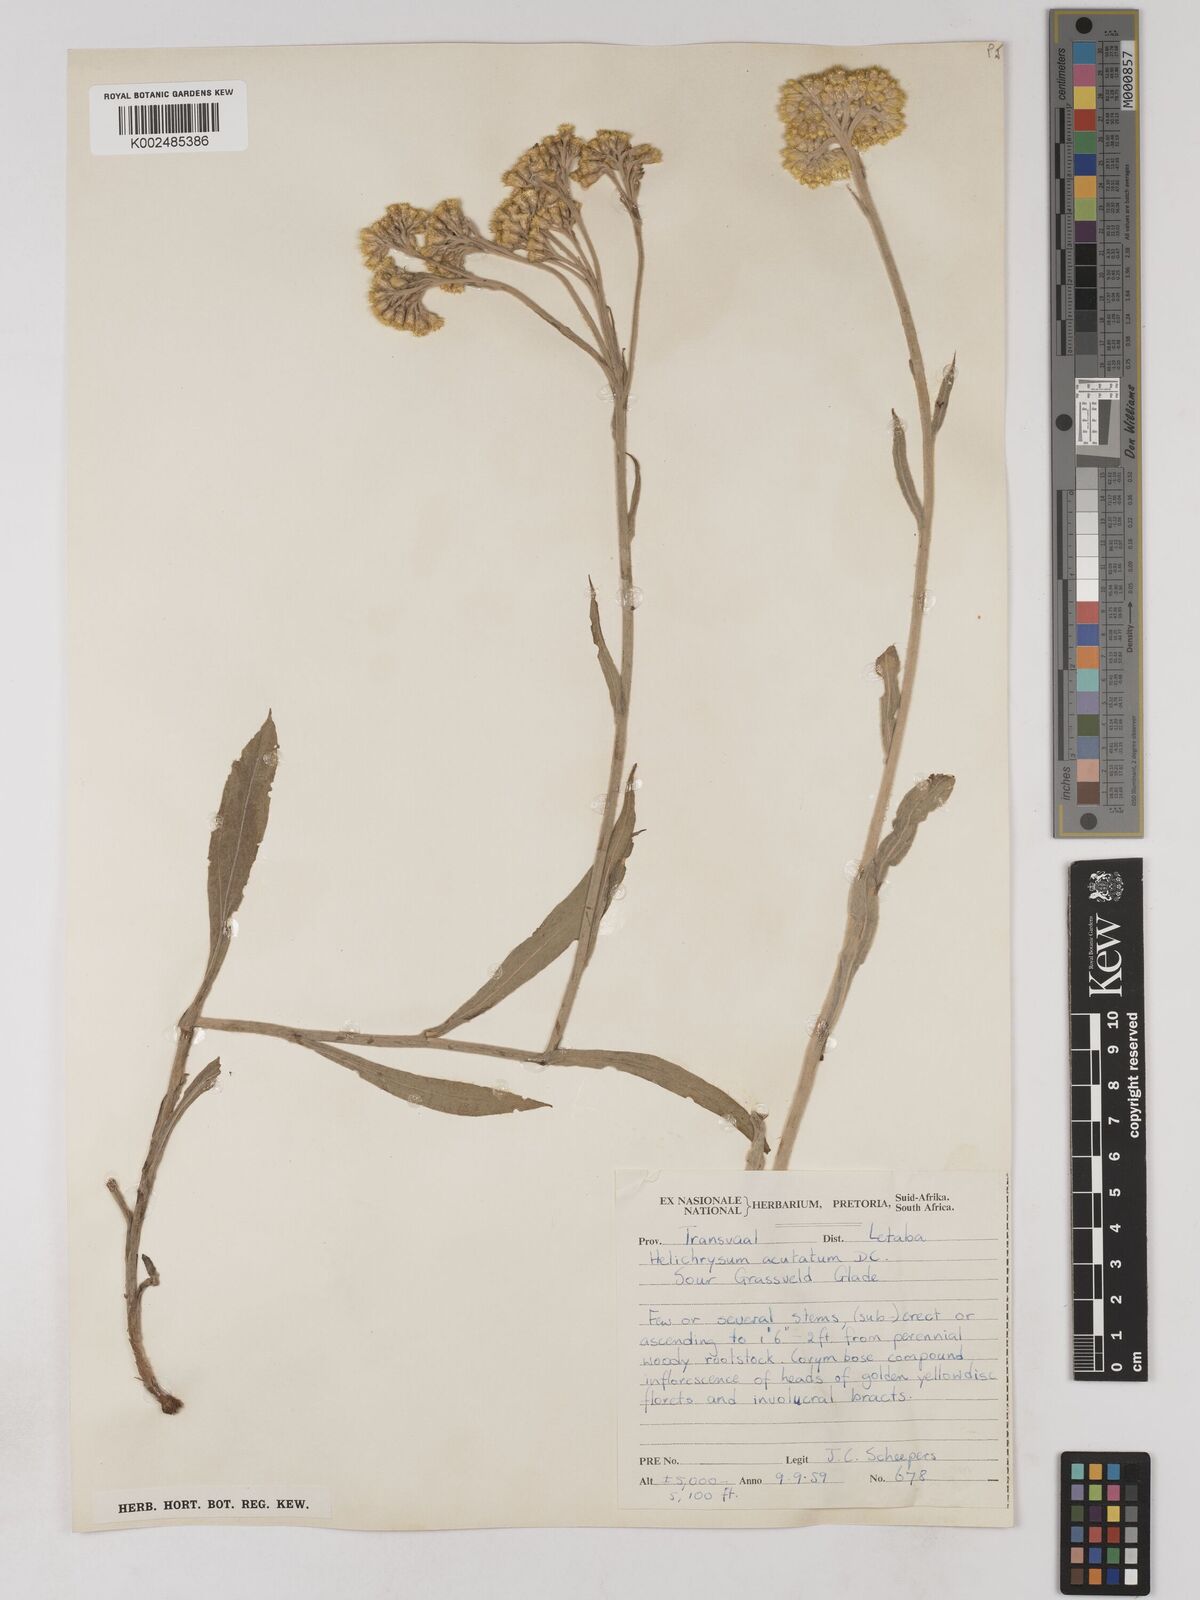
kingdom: Plantae
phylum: Tracheophyta
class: Magnoliopsida
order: Asterales
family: Asteraceae
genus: Helichrysum
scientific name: Helichrysum acutatum
